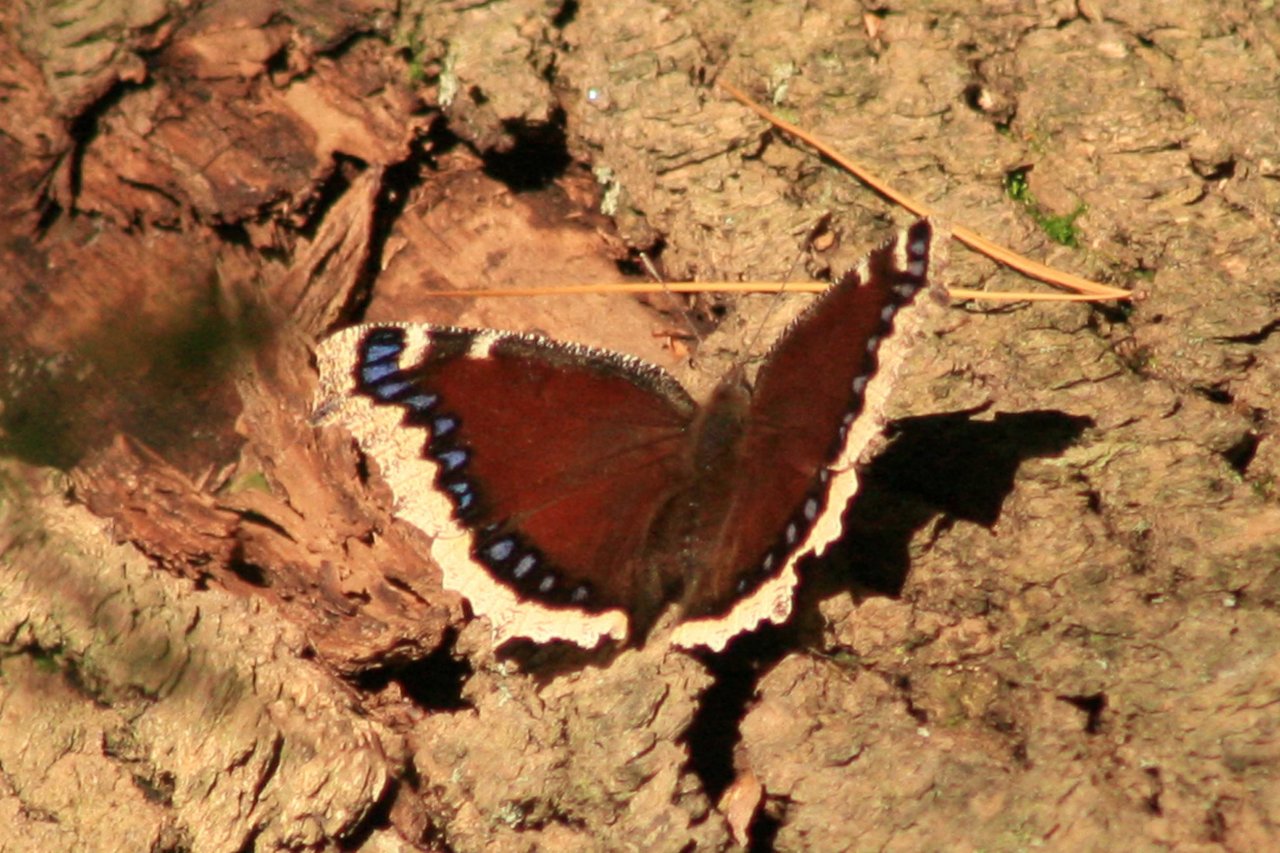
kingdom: Animalia
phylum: Arthropoda
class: Insecta
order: Lepidoptera
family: Nymphalidae
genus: Nymphalis
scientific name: Nymphalis antiopa
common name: Mourning Cloak
